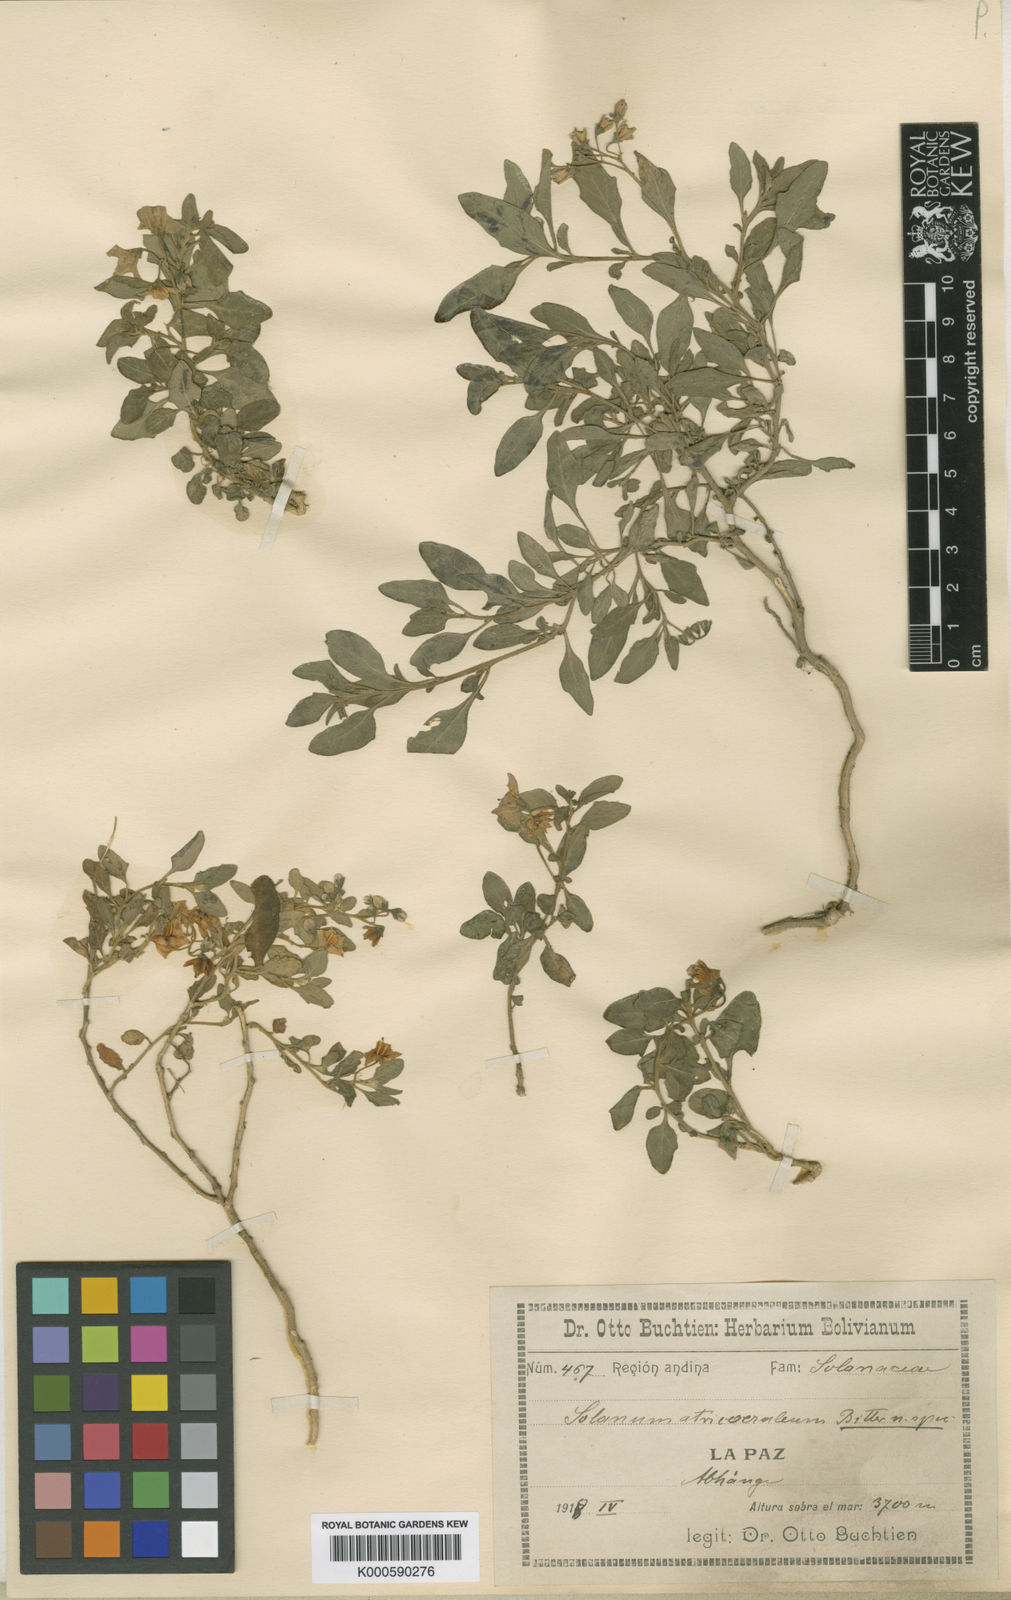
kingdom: Plantae
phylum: Tracheophyta
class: Magnoliopsida
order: Solanales
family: Solanaceae
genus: Solanum
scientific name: Solanum gonocladum
